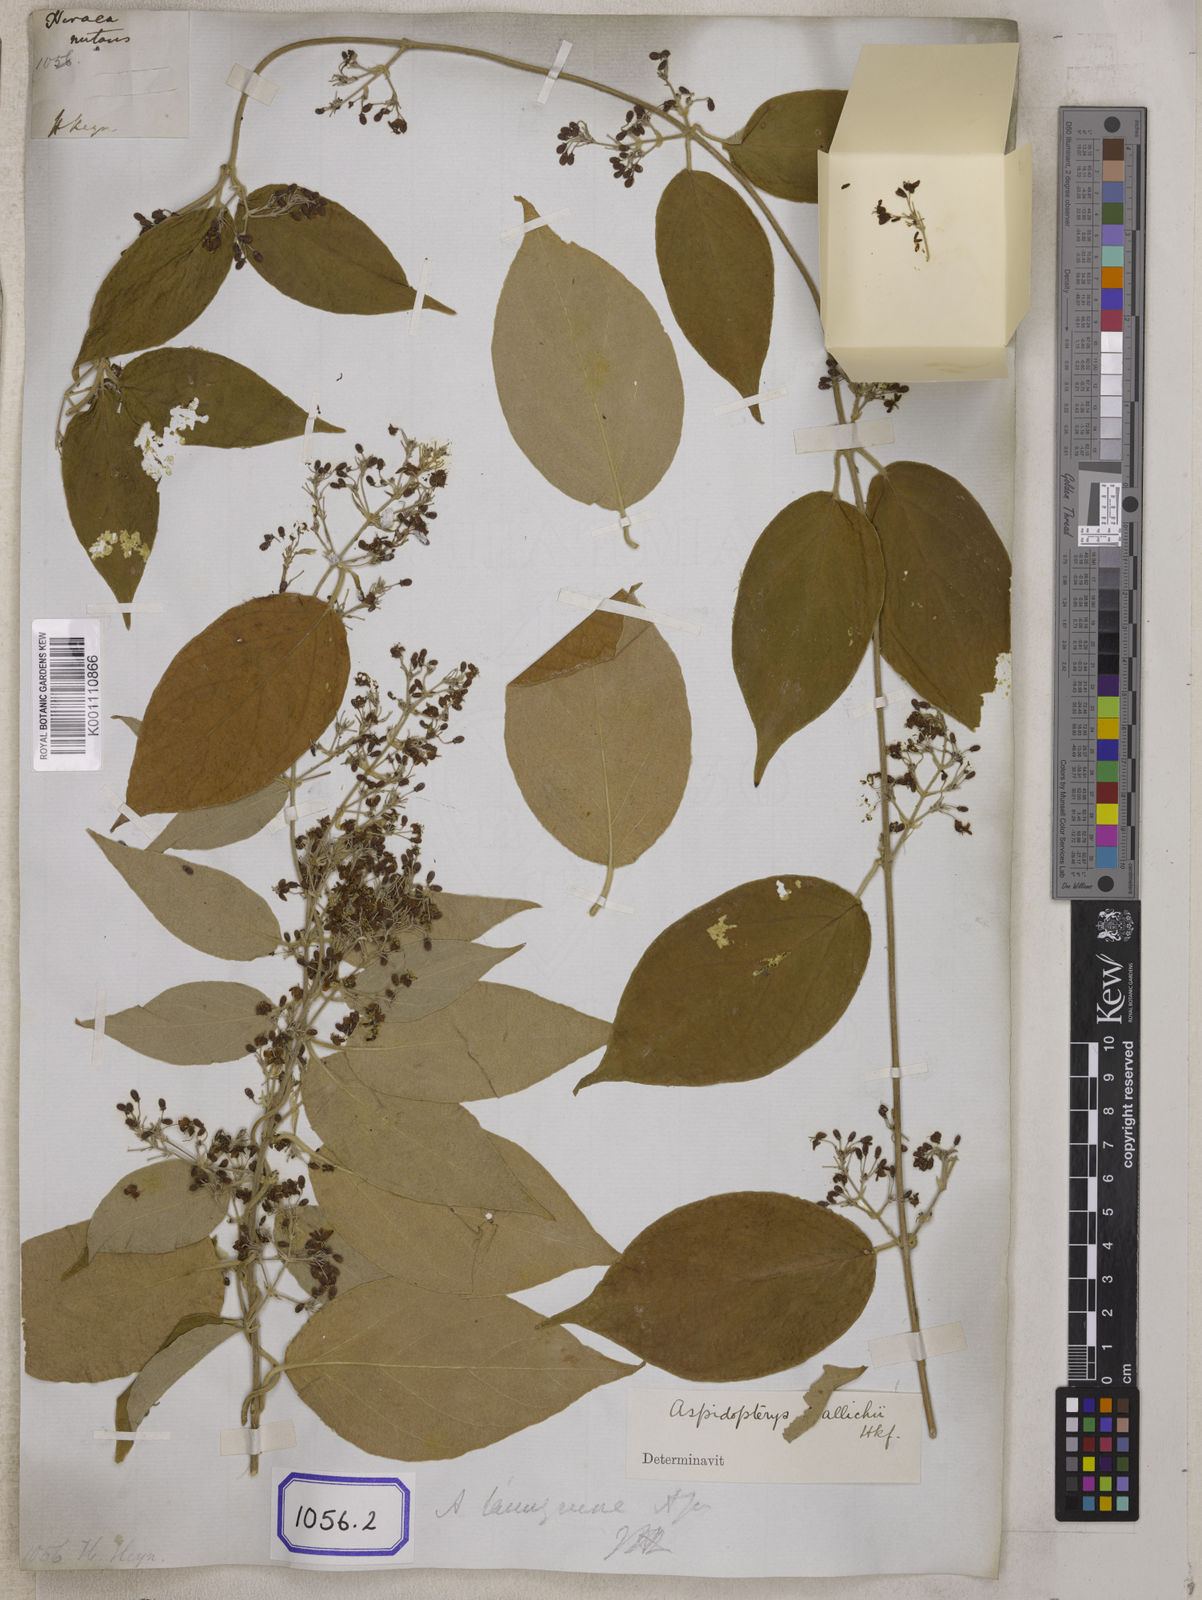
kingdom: Plantae
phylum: Tracheophyta
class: Magnoliopsida
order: Malpighiales
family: Malpighiaceae
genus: Hiraea
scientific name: Hiraea
